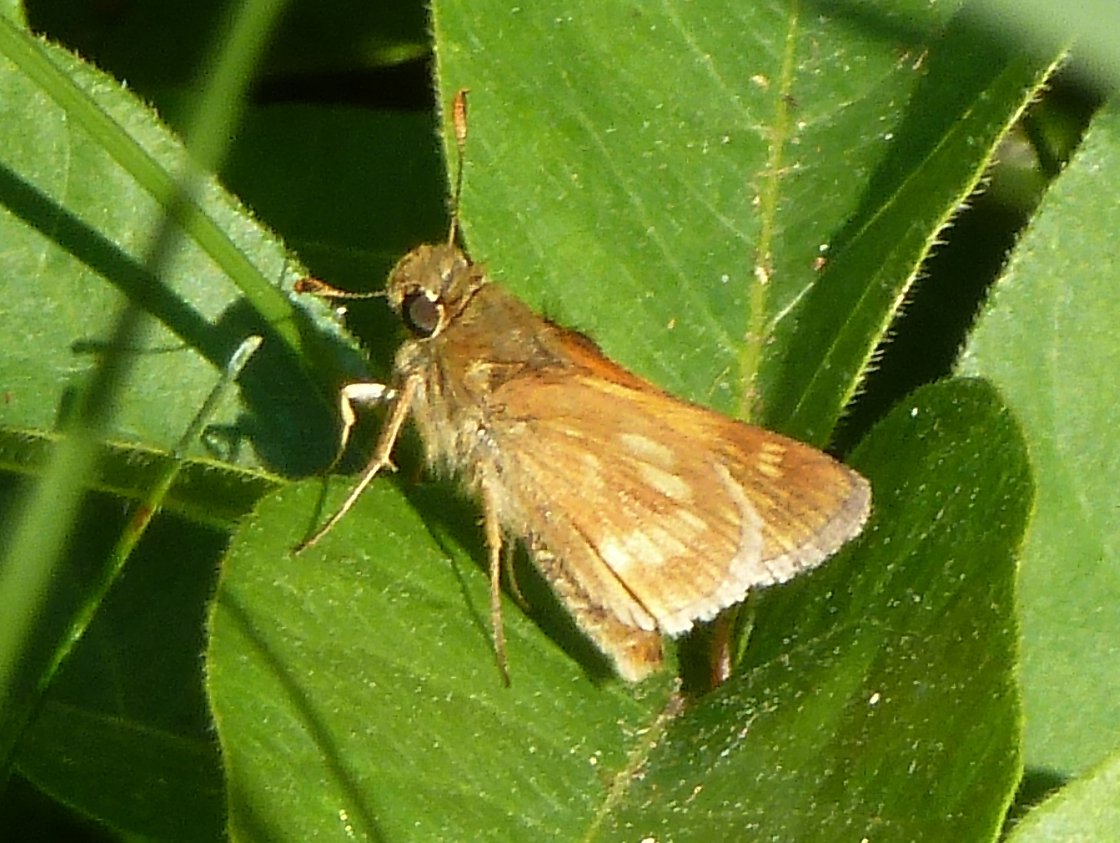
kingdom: Animalia
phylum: Arthropoda
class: Insecta
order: Lepidoptera
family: Hesperiidae
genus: Polites
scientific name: Polites
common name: Long Dash Skipper
